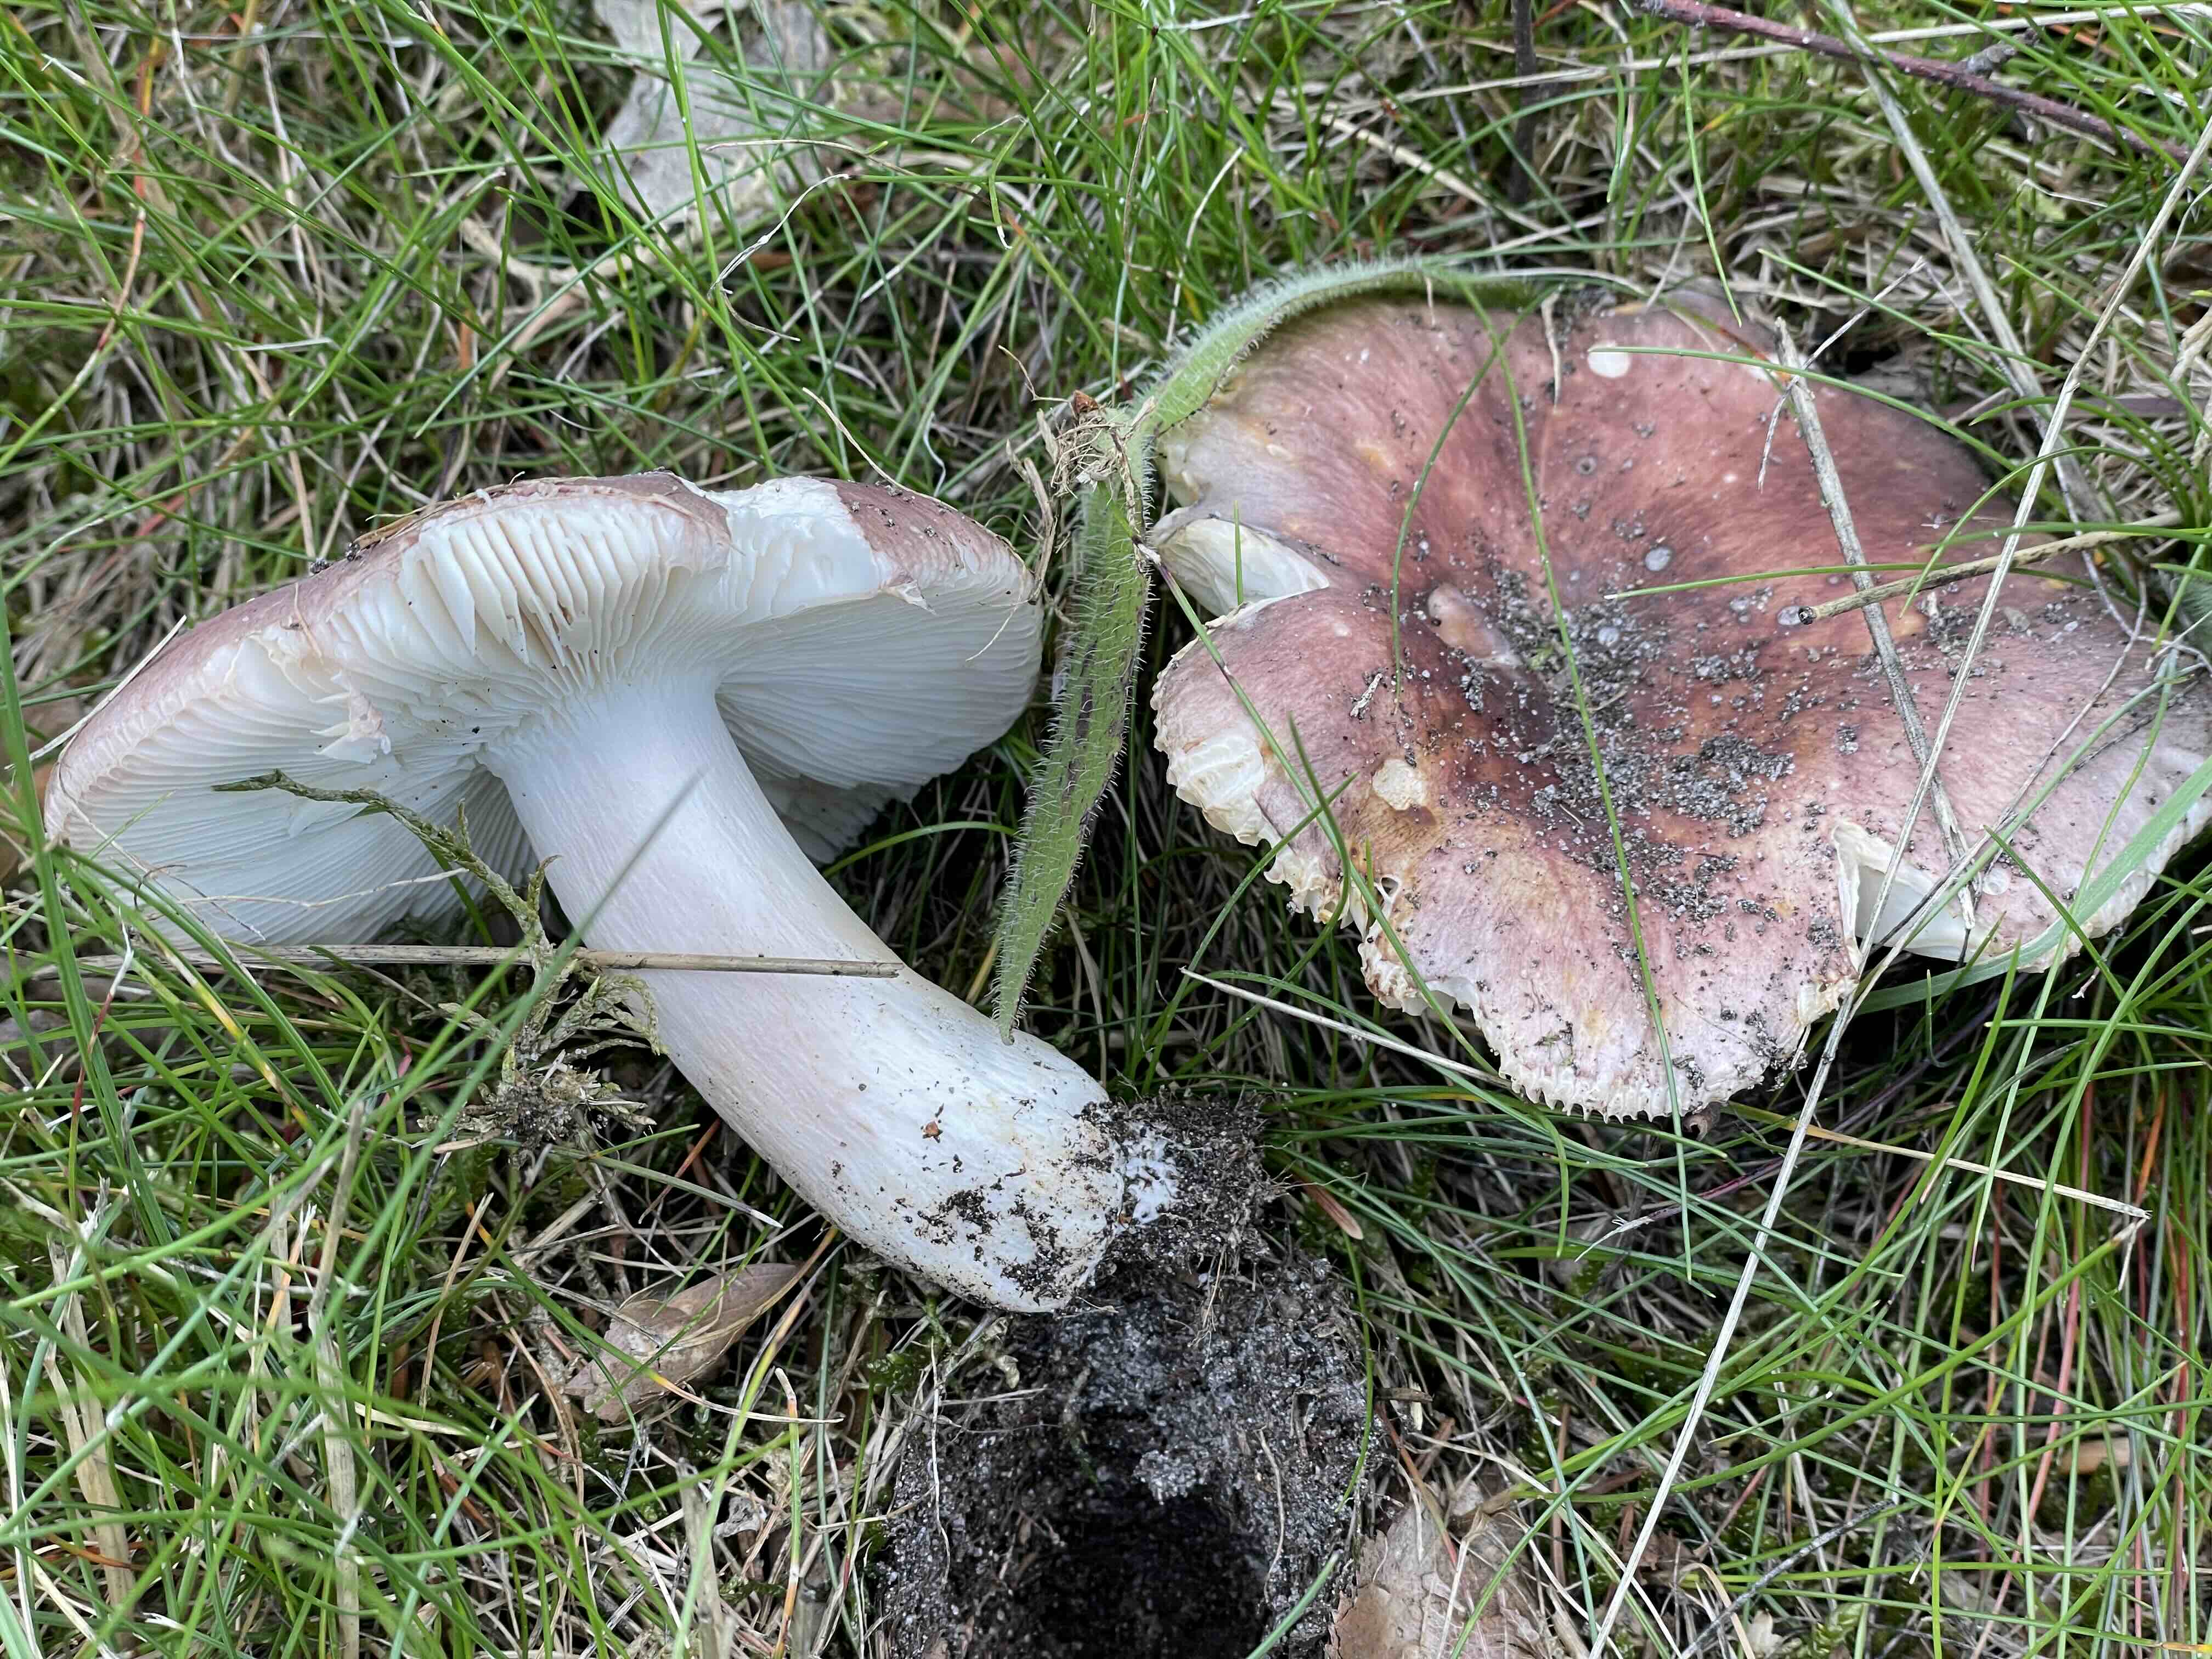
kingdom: Fungi
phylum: Basidiomycota
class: Agaricomycetes
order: Russulales
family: Russulaceae
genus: Russula
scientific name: Russula
